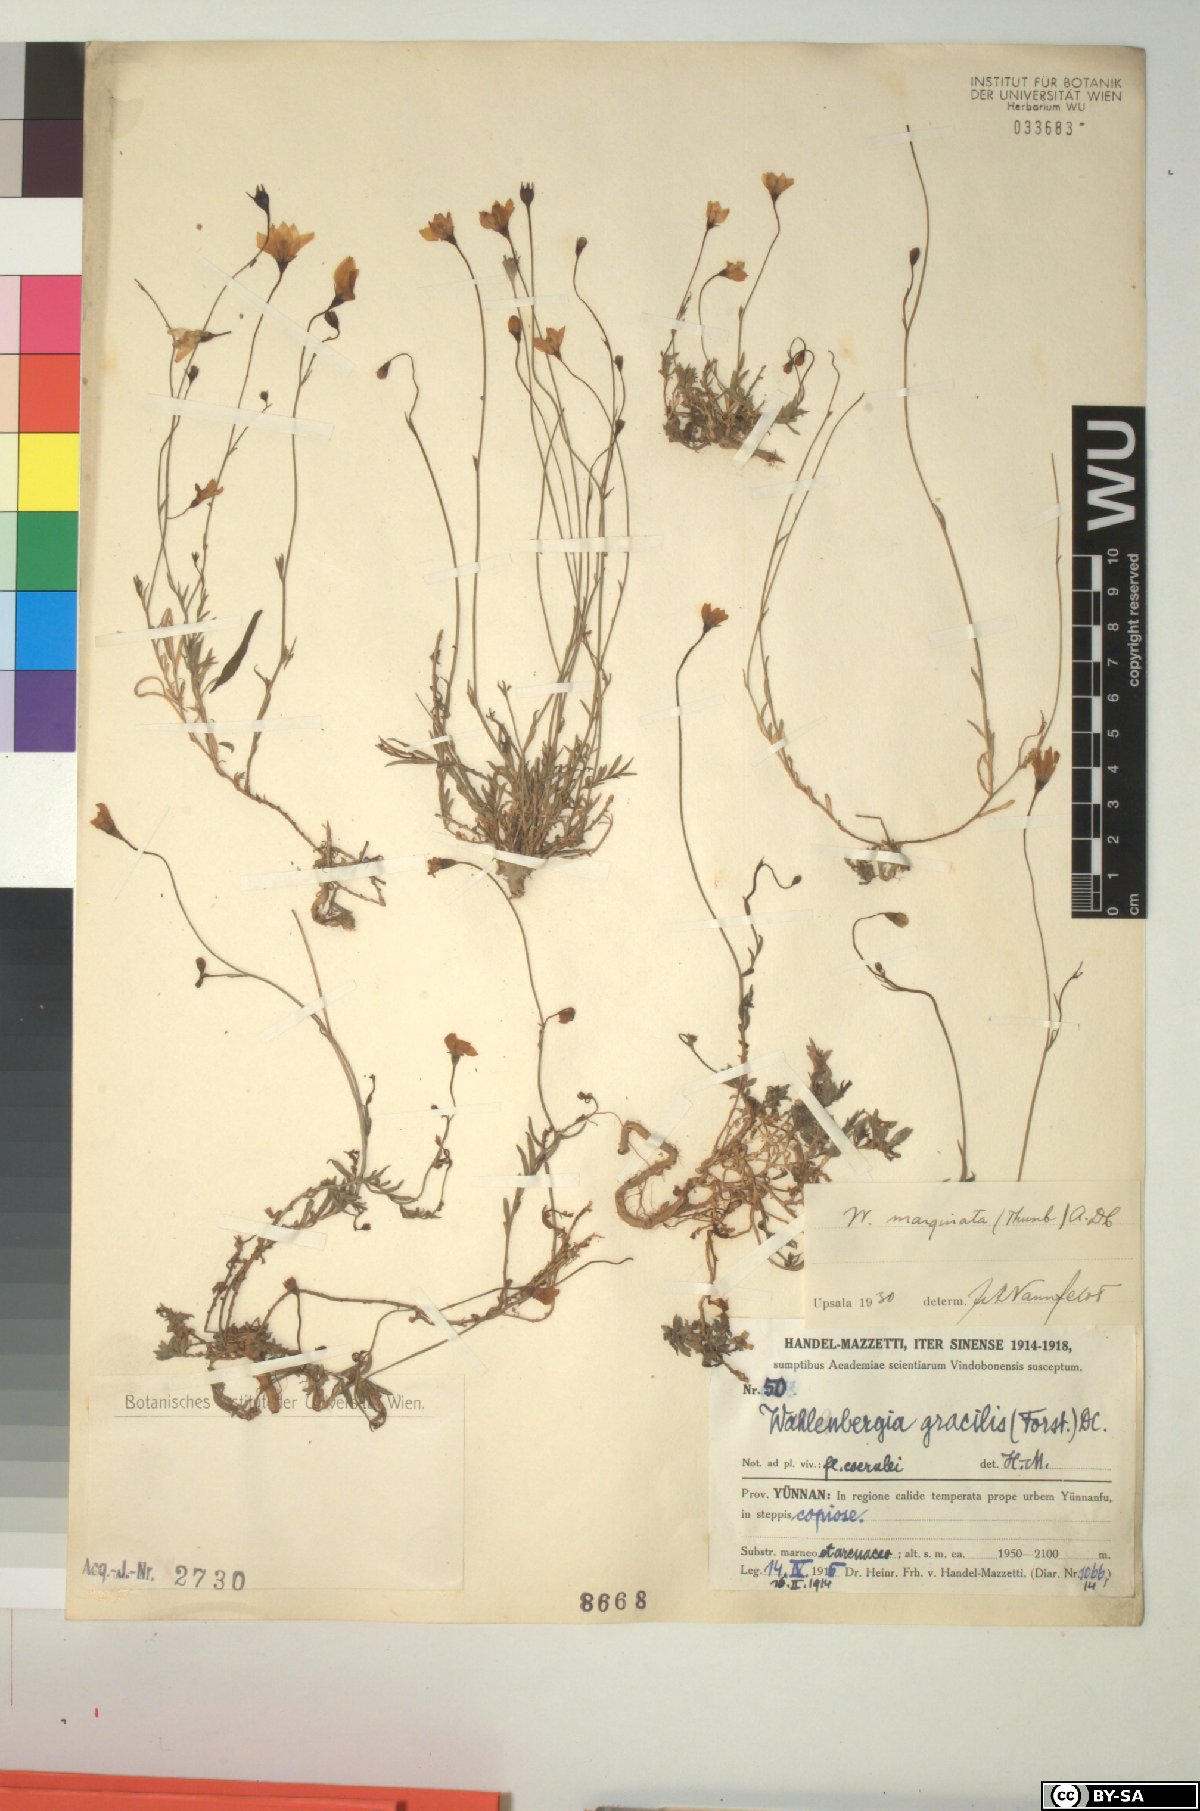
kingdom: Plantae
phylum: Tracheophyta
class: Magnoliopsida
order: Asterales
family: Campanulaceae
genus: Wahlenbergia
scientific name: Wahlenbergia marginata
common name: Southern rockbell
